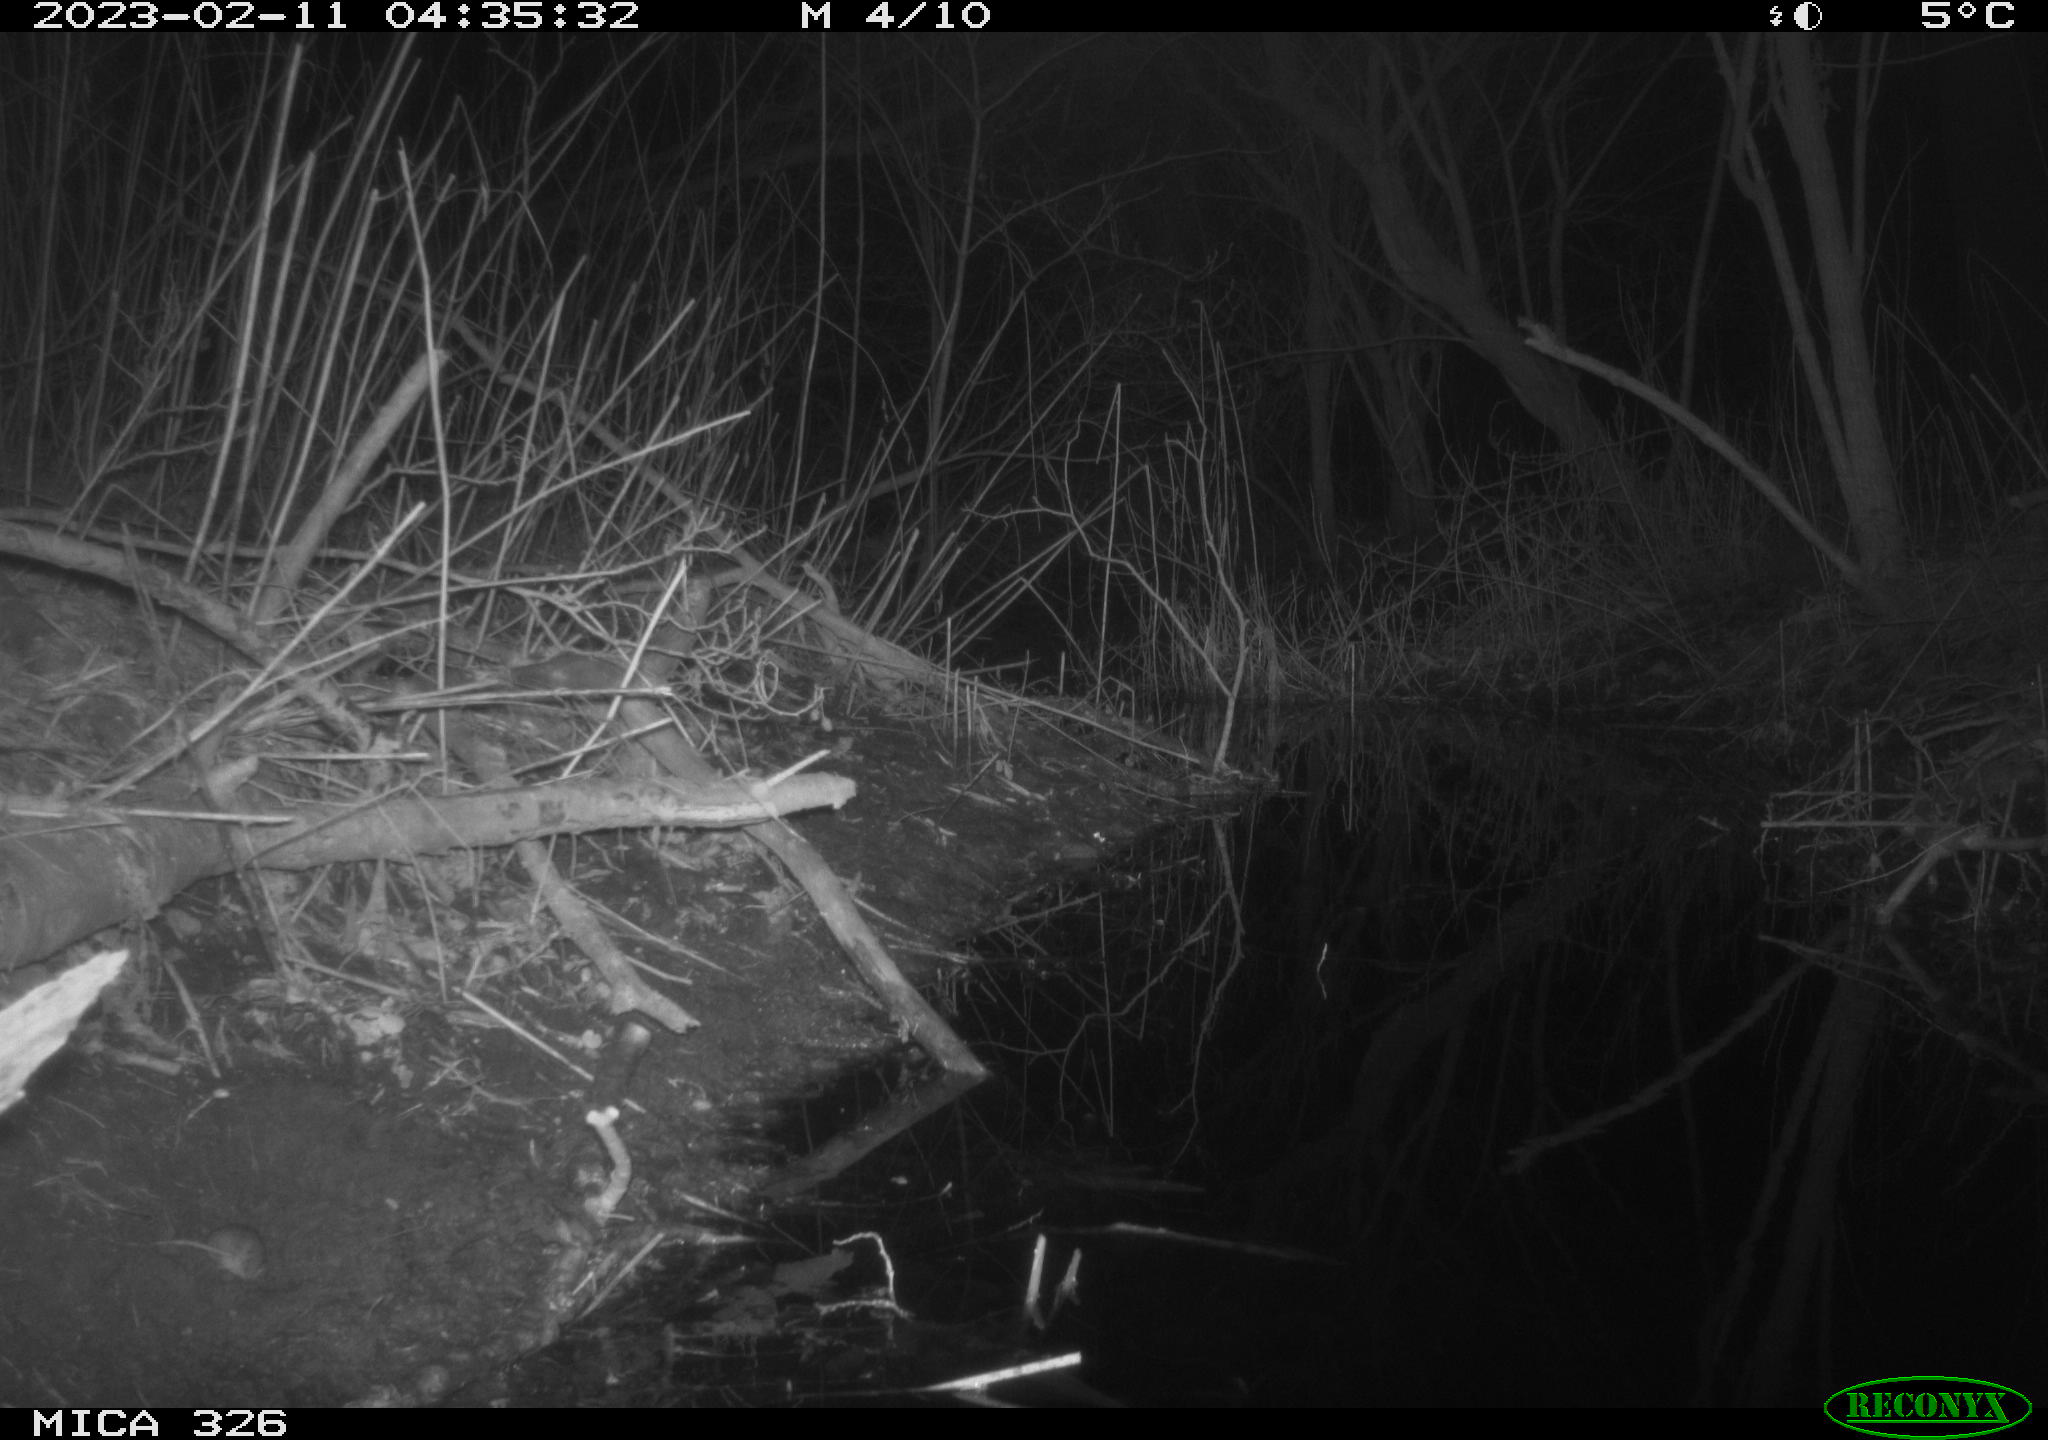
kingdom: Animalia
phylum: Chordata
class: Mammalia
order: Rodentia
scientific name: Rodentia
